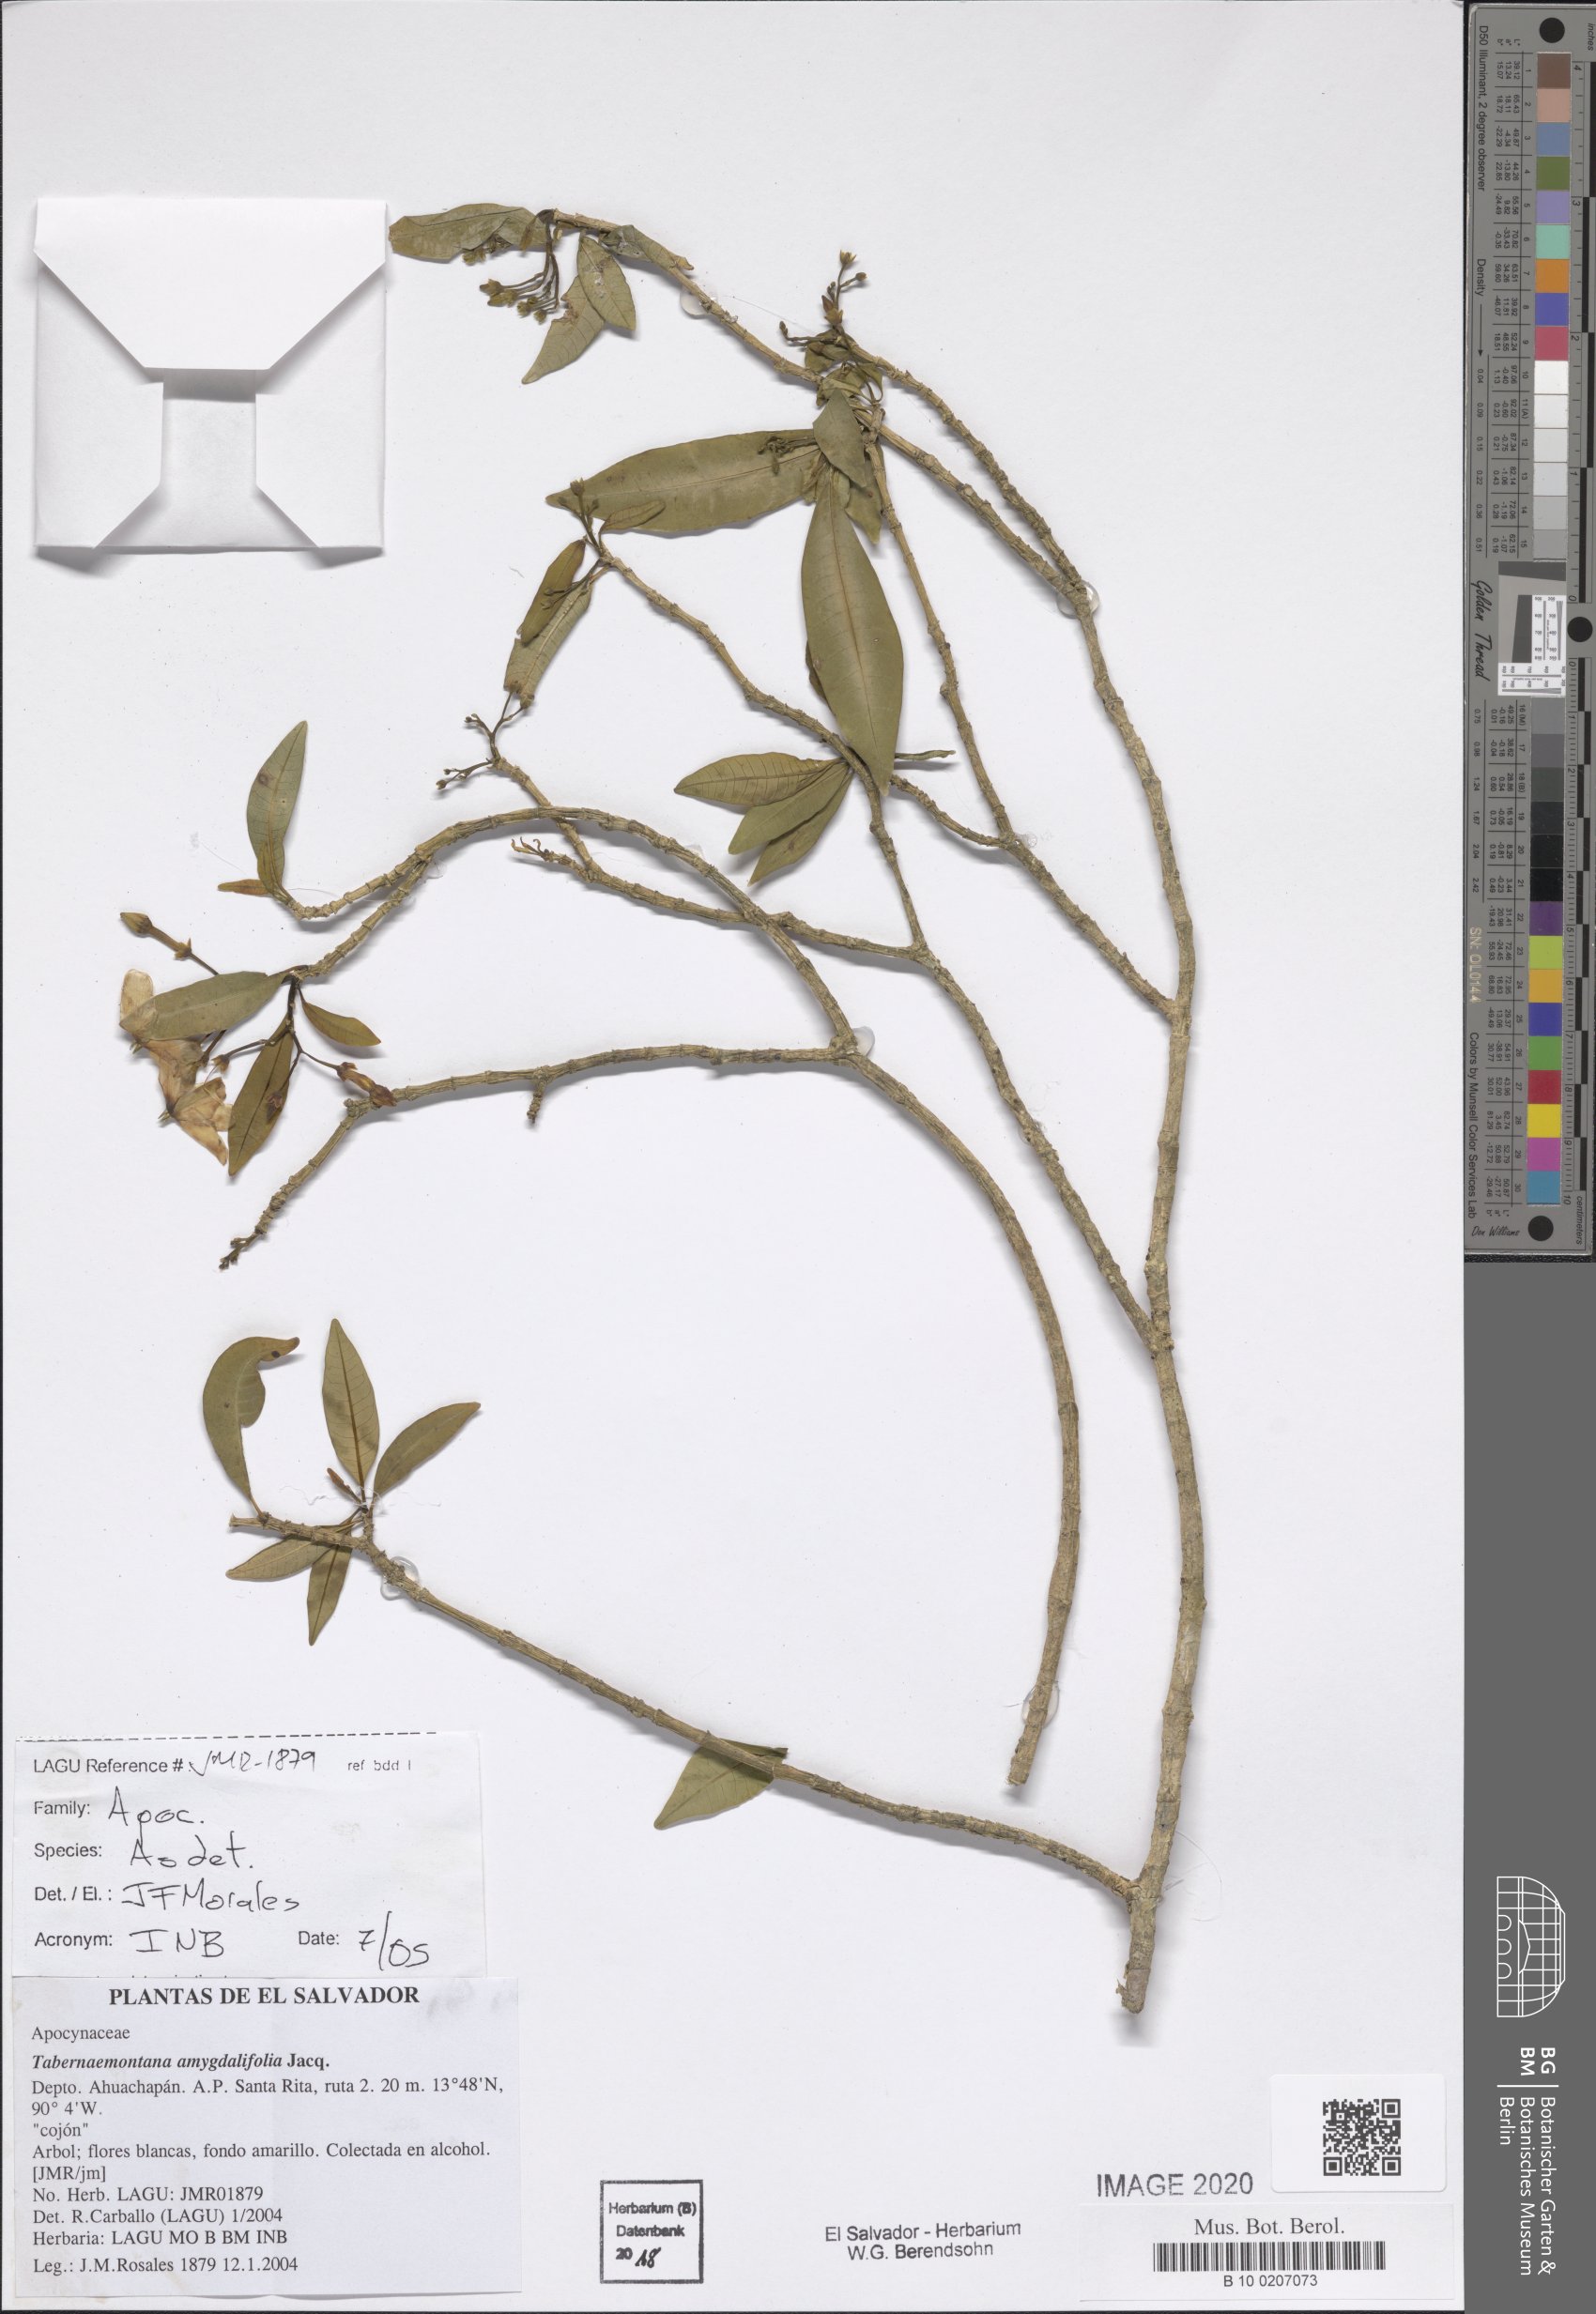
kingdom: Plantae
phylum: Tracheophyta
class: Magnoliopsida
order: Gentianales
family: Apocynaceae
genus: Tabernaemontana
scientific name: Tabernaemontana amygdalifolia
